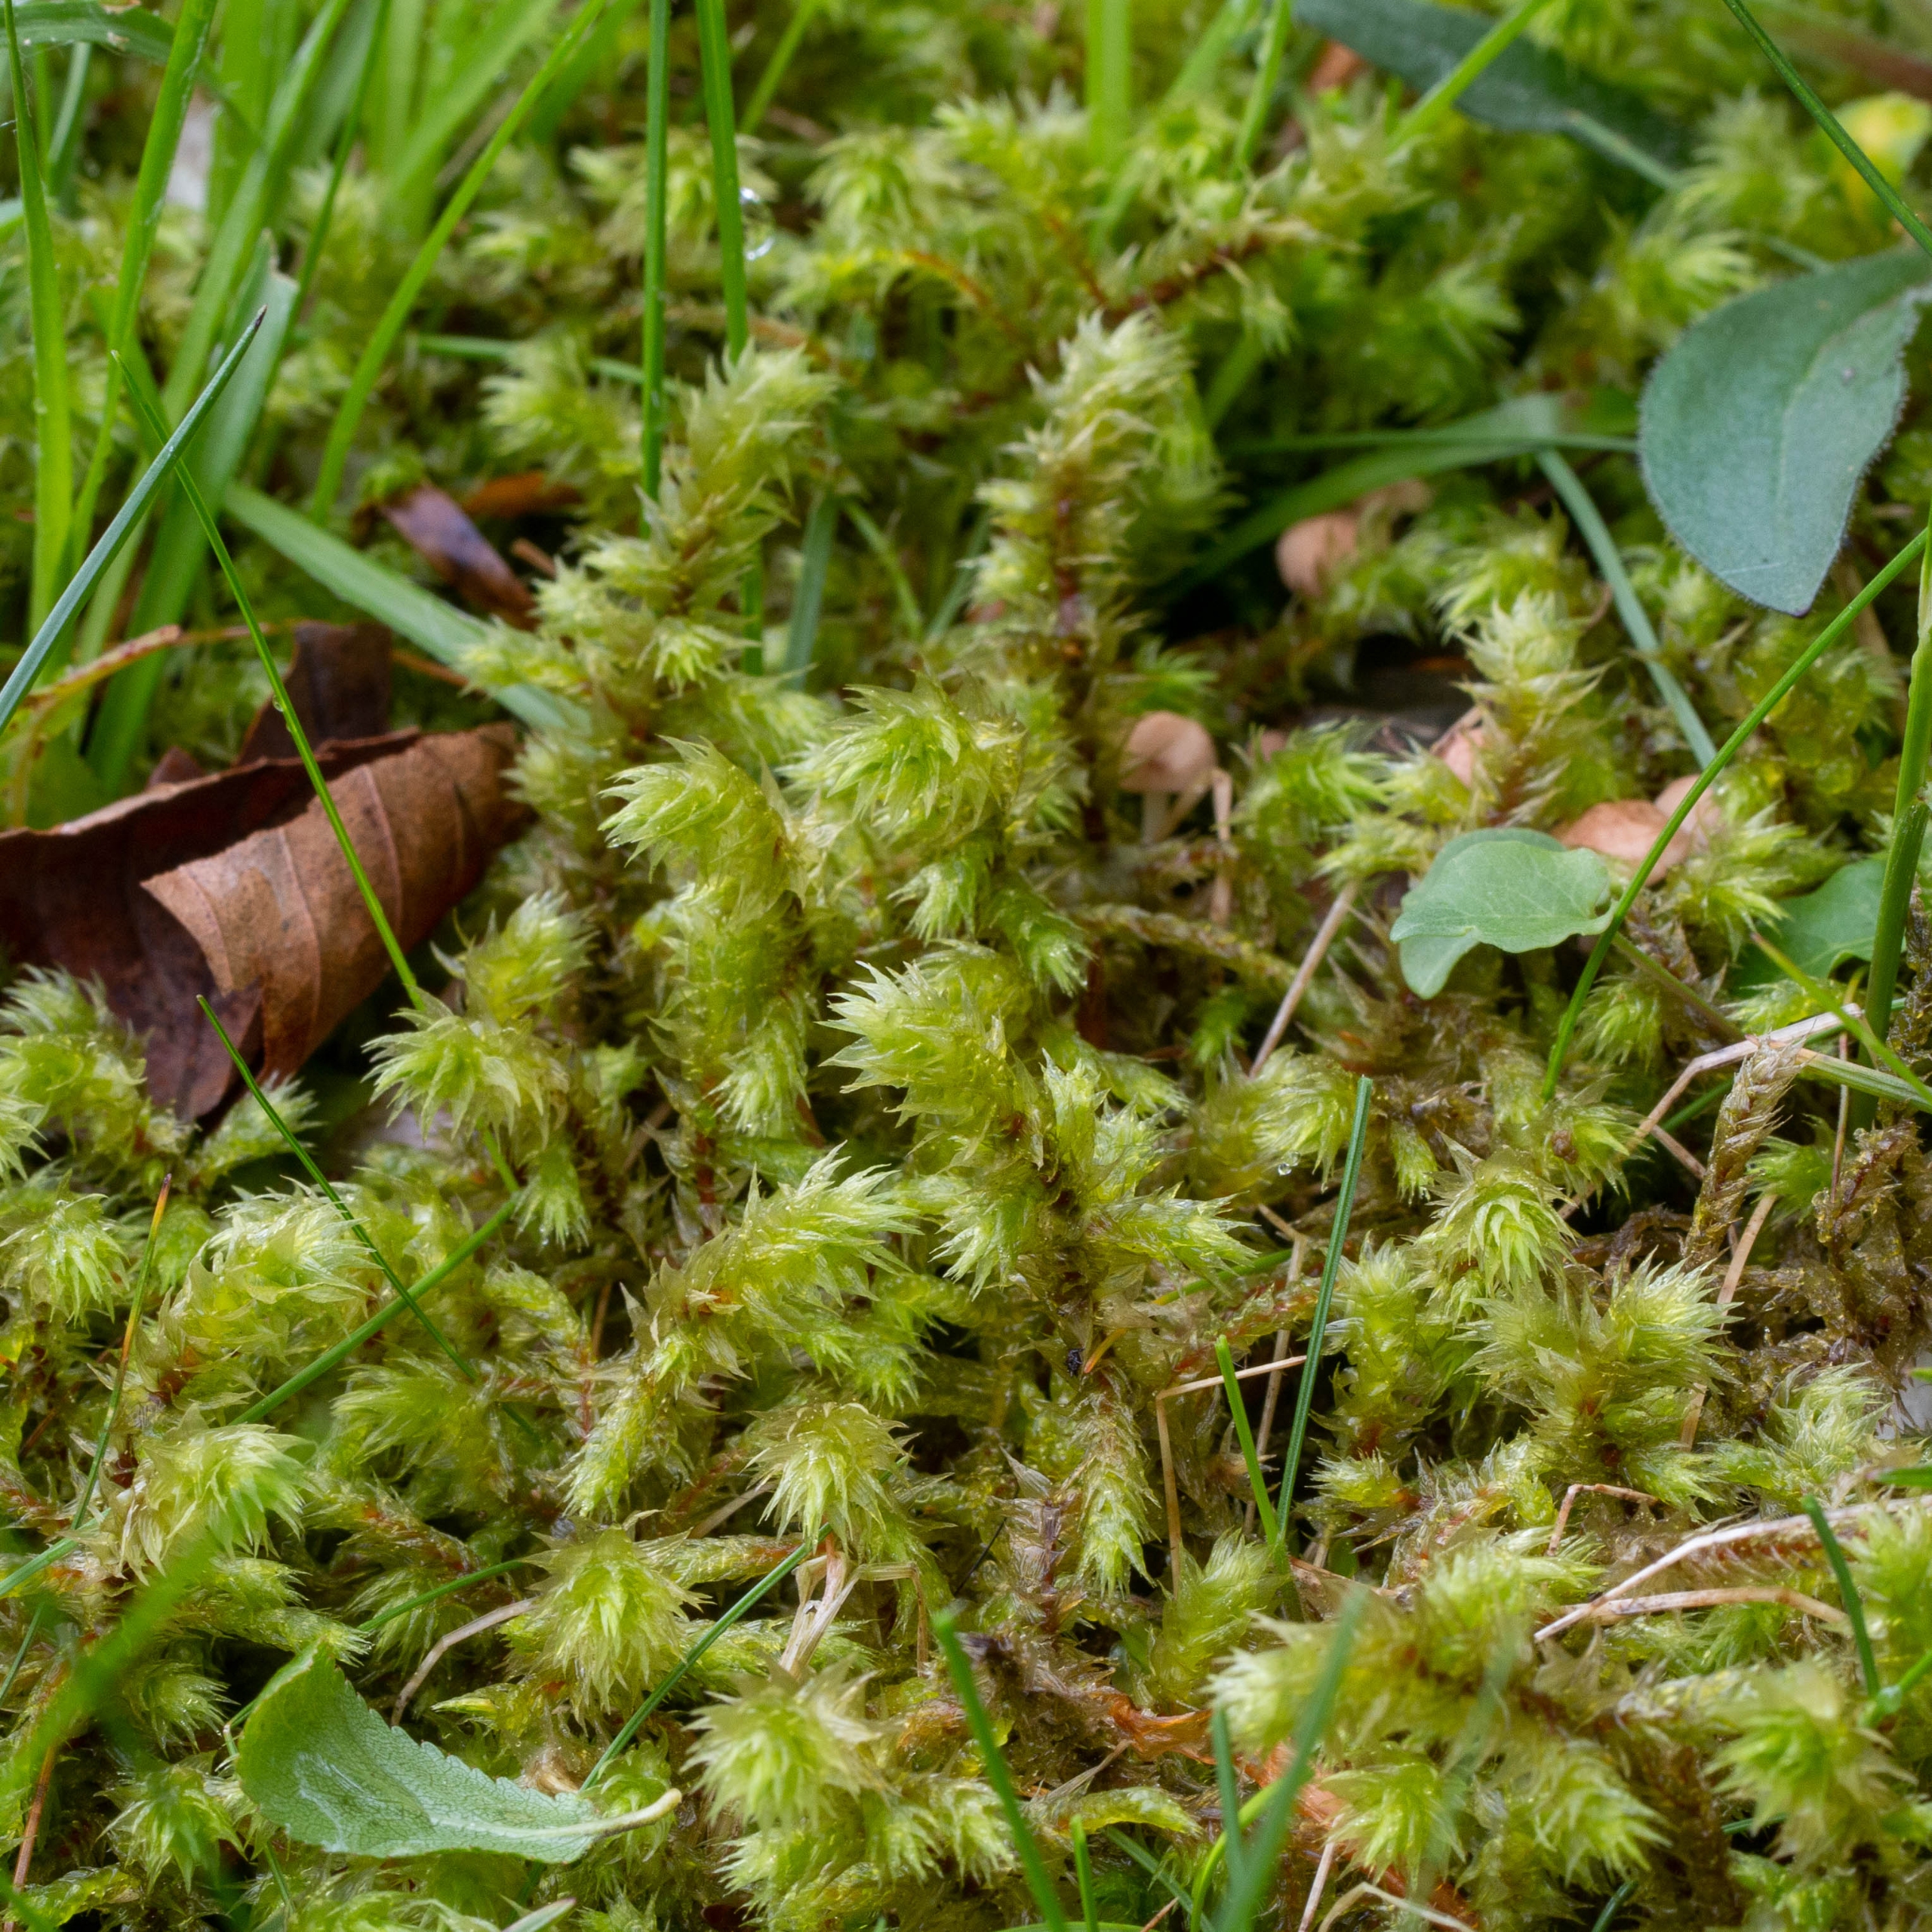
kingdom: Plantae
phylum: Bryophyta
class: Bryopsida
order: Hypnales
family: Hylocomiaceae
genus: Hylocomiadelphus
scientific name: Hylocomiadelphus triquetrus
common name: Stor kransemos
